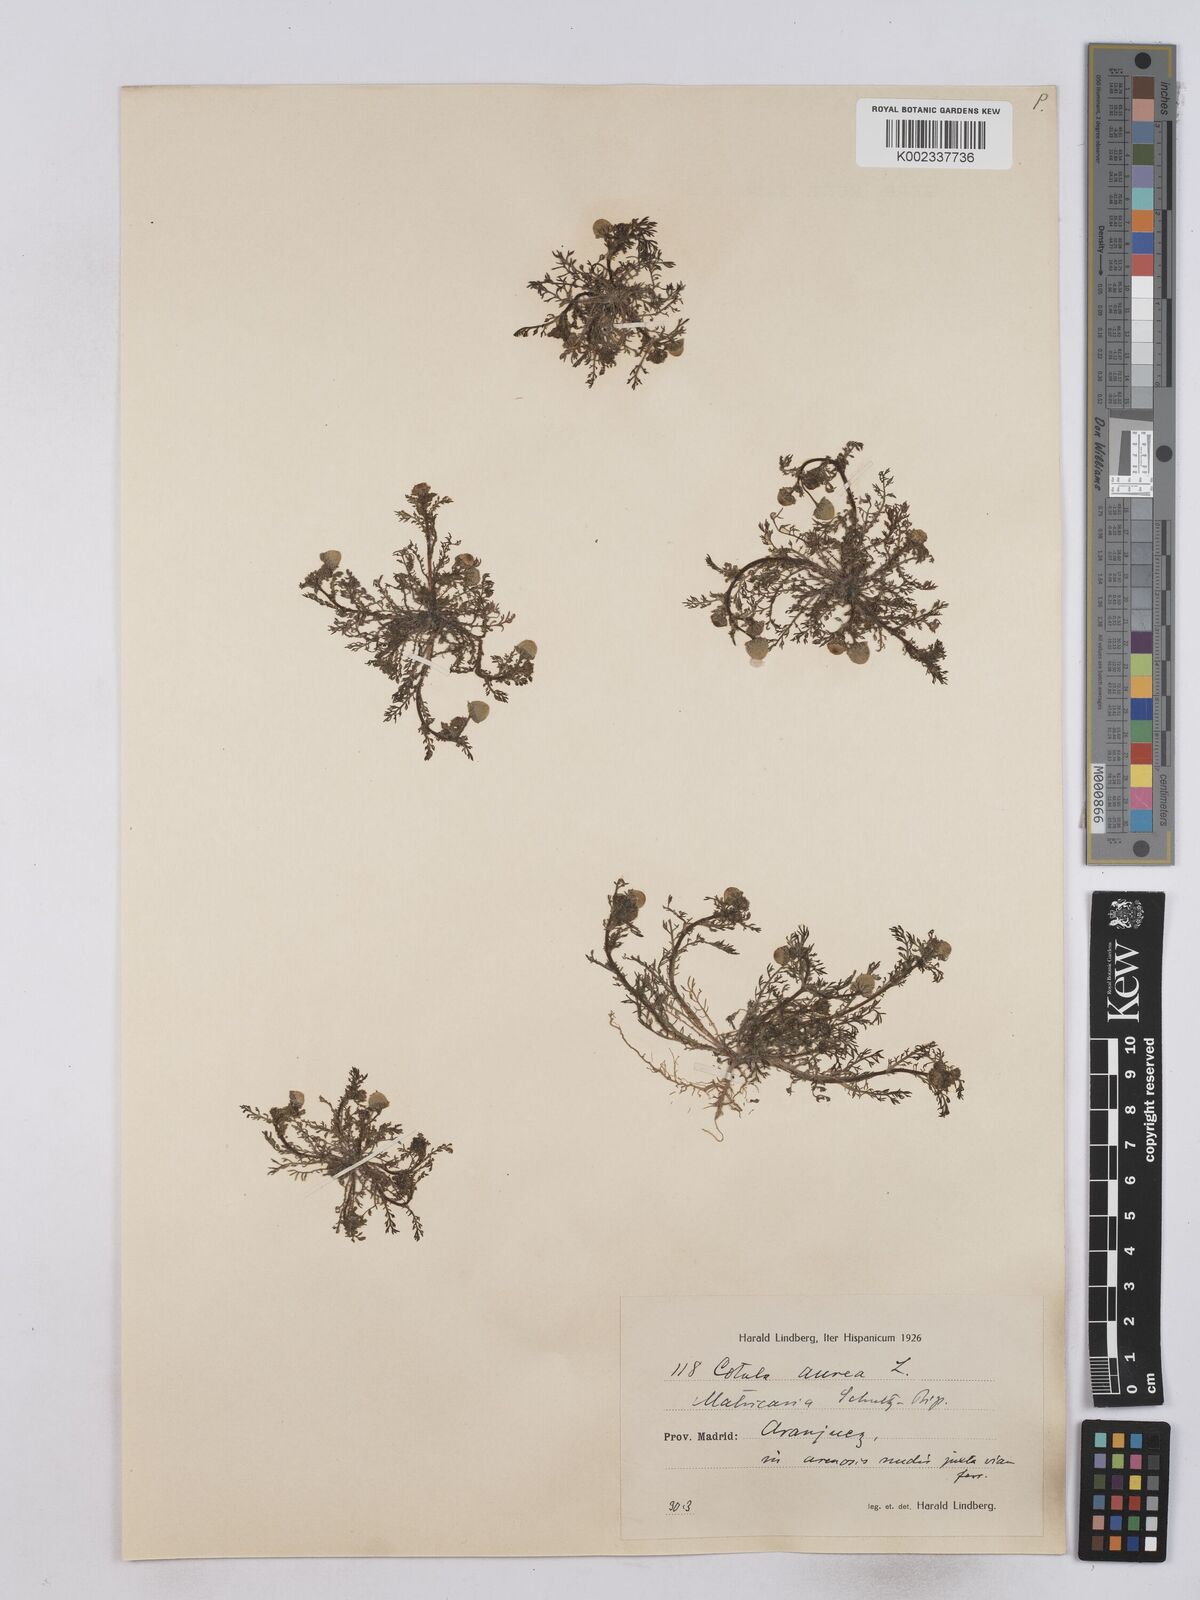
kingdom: Plantae
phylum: Tracheophyta
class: Magnoliopsida
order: Asterales
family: Asteraceae
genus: Matricaria
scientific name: Matricaria aurea
